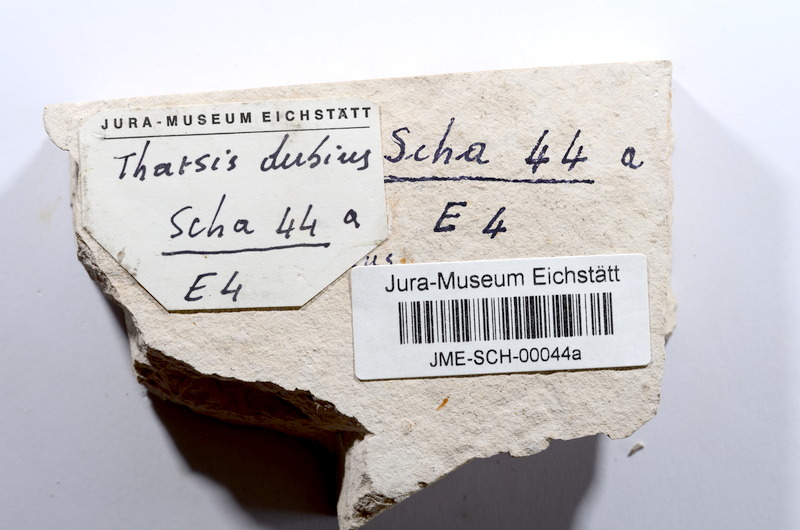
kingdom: Animalia
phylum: Chordata
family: Ascalaboidae
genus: Tharsis
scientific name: Tharsis dubius
